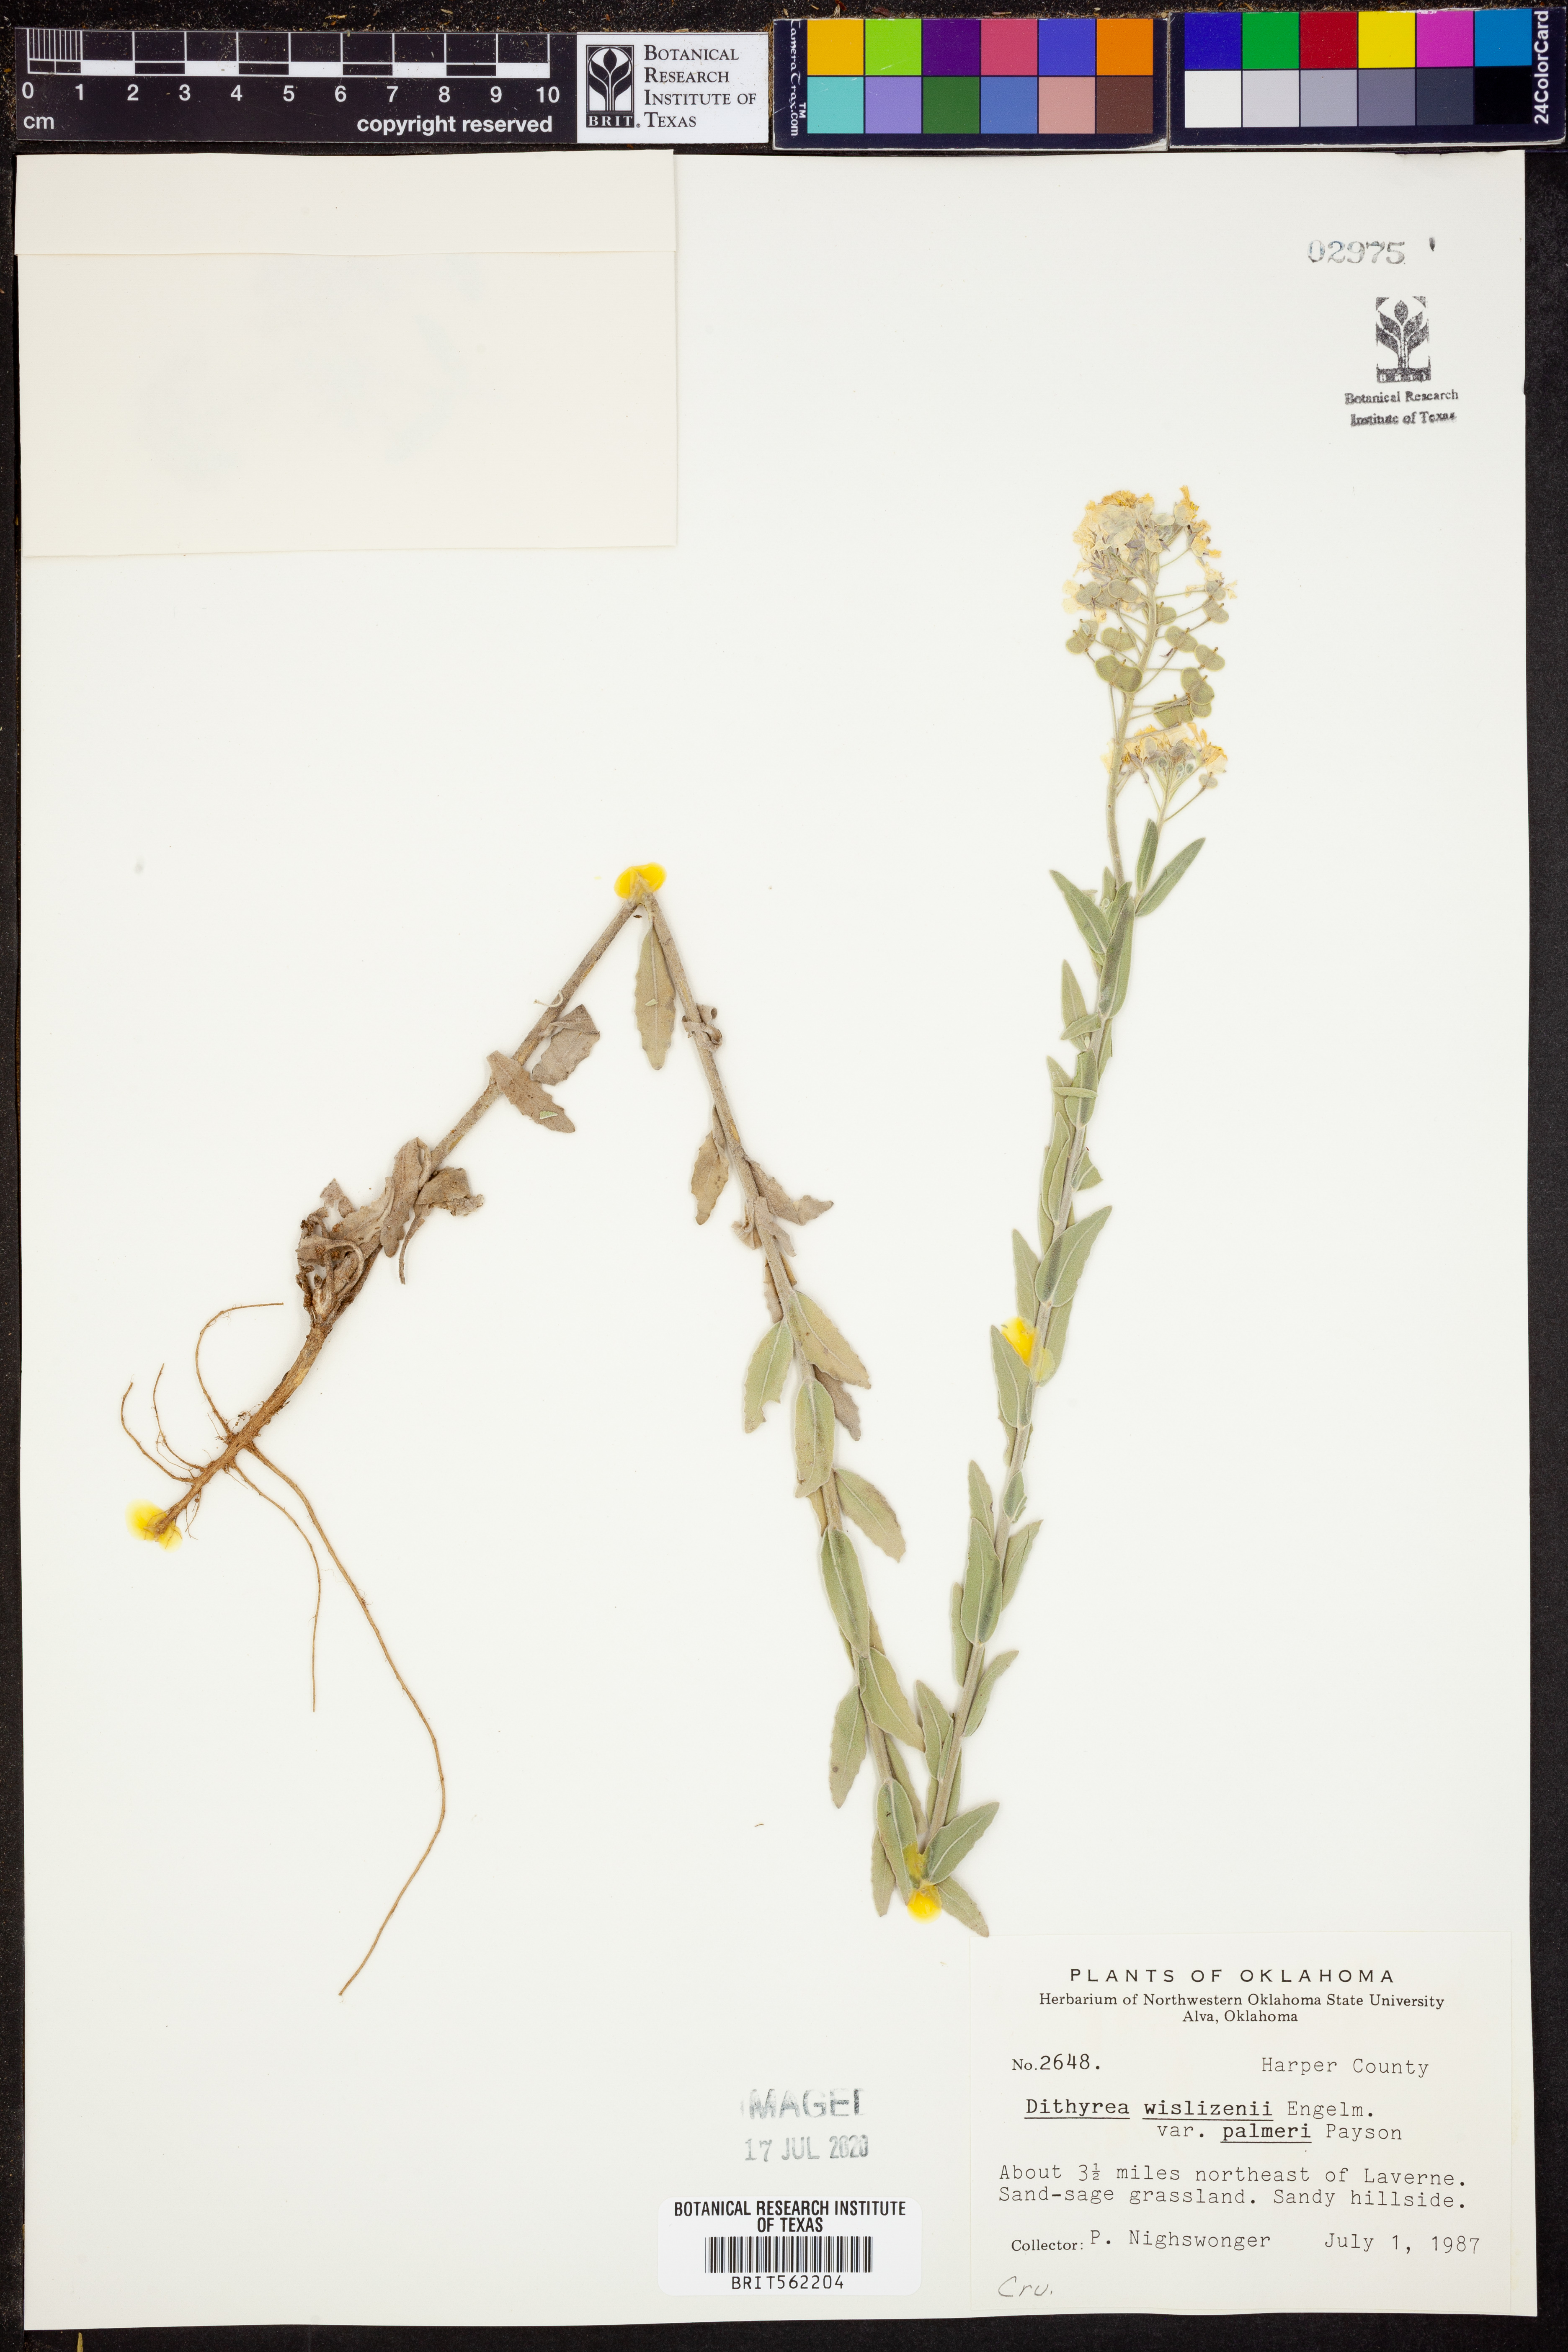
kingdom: Plantae
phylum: Tracheophyta
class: Magnoliopsida
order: Brassicales
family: Brassicaceae
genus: Dimorphocarpa
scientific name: Dimorphocarpa candicans
